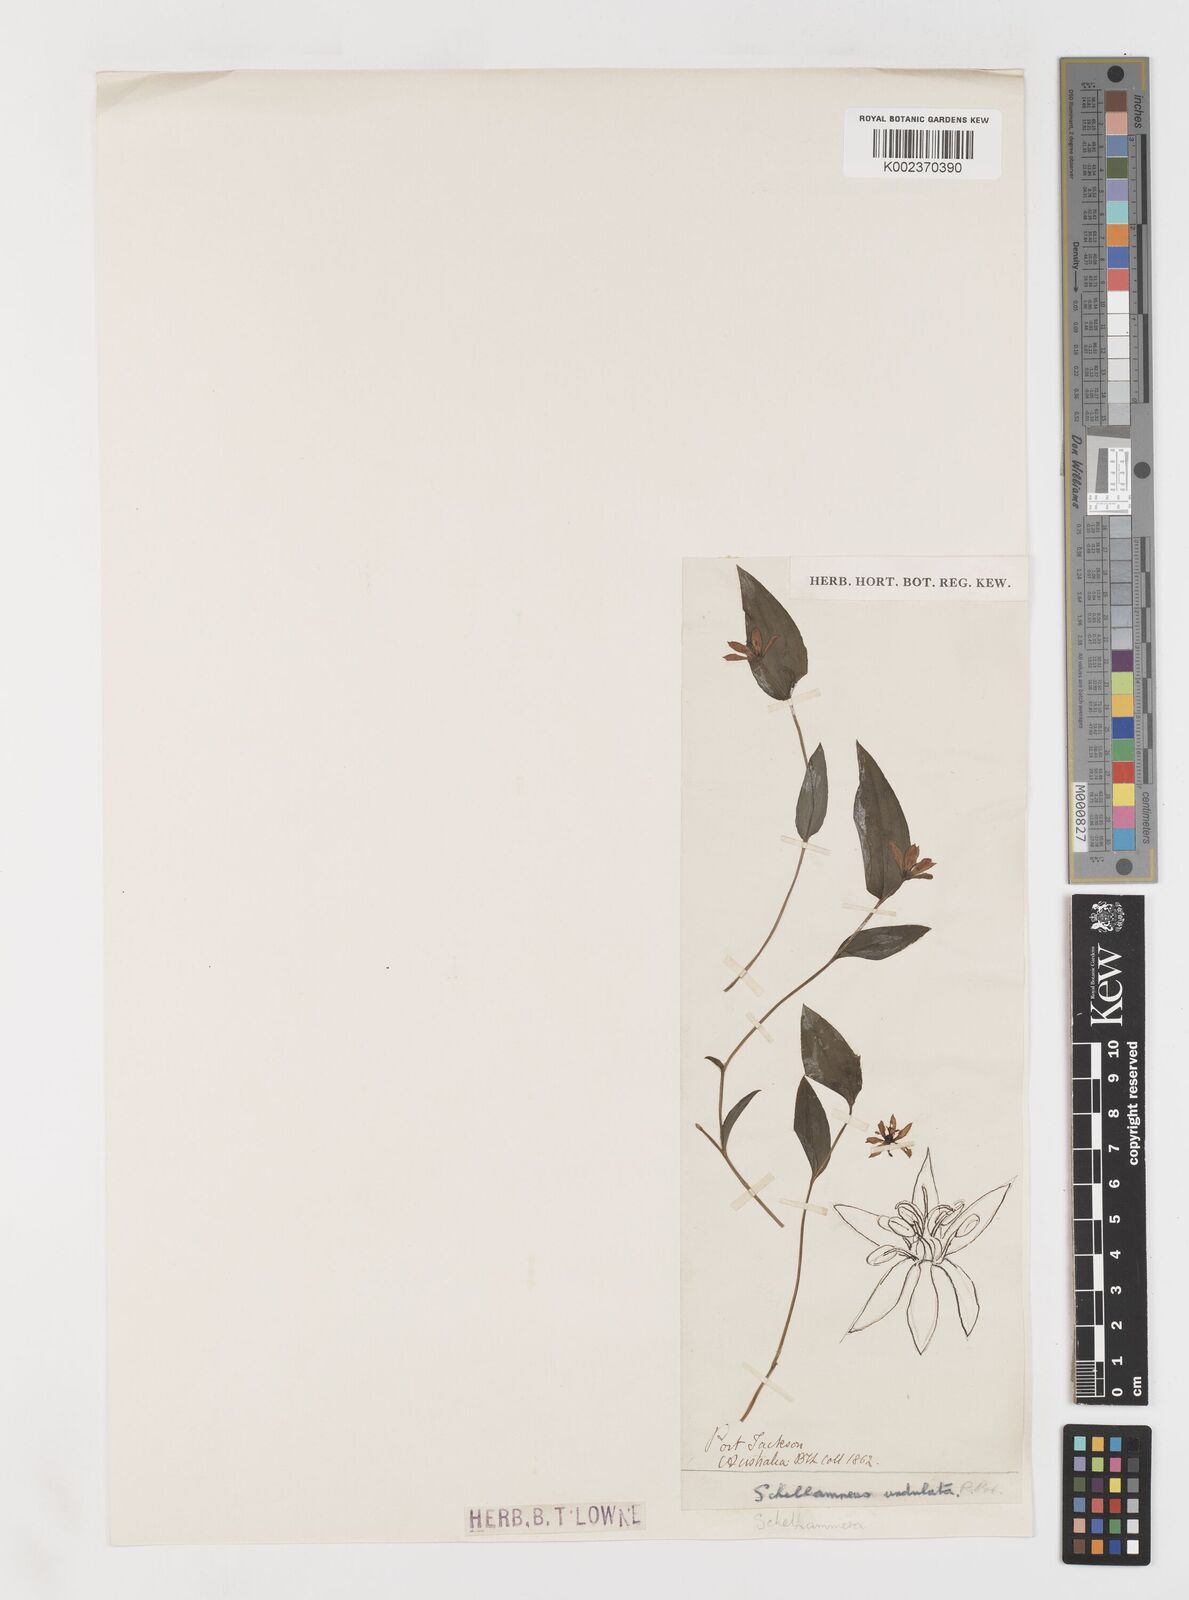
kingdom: Plantae
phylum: Tracheophyta
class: Liliopsida
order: Liliales
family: Colchicaceae
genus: Schelhammera
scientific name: Schelhammera undulata
